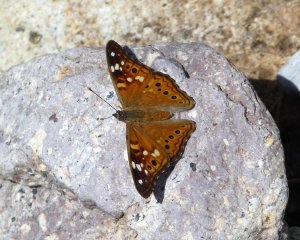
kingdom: Animalia
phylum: Arthropoda
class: Insecta
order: Lepidoptera
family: Nymphalidae
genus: Asterocampa
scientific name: Asterocampa leilia
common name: Empress Leilia
